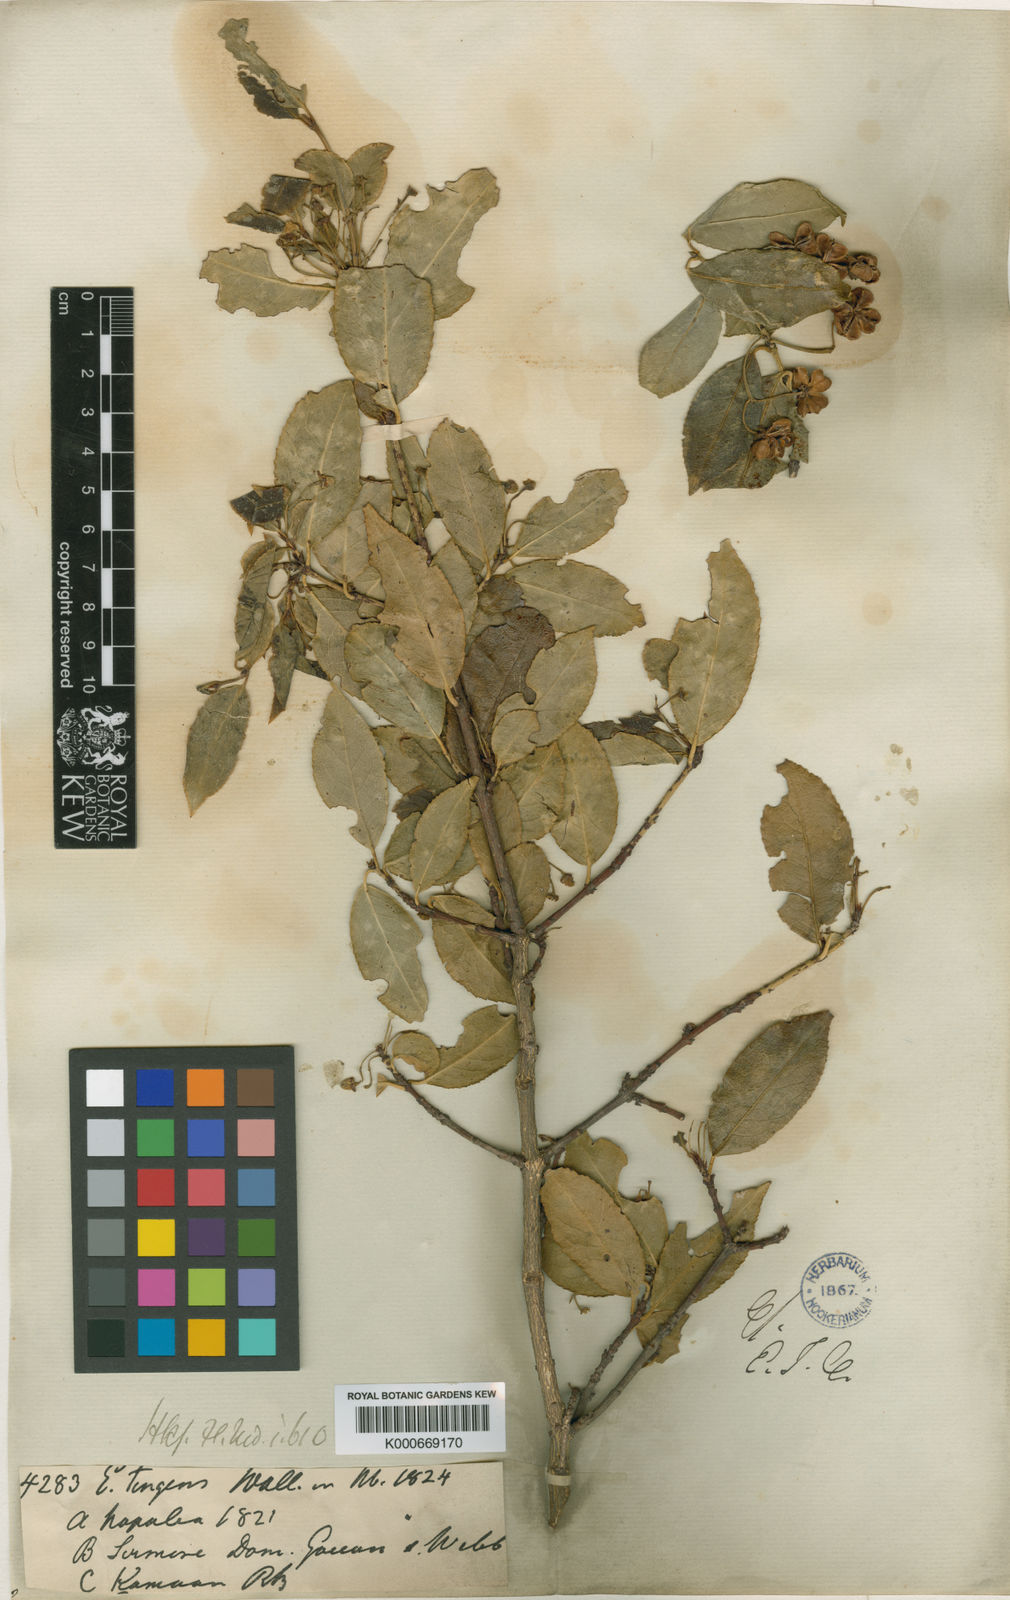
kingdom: Plantae
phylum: Tracheophyta
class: Magnoliopsida
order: Celastrales
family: Celastraceae
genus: Euonymus
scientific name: Euonymus tingens
